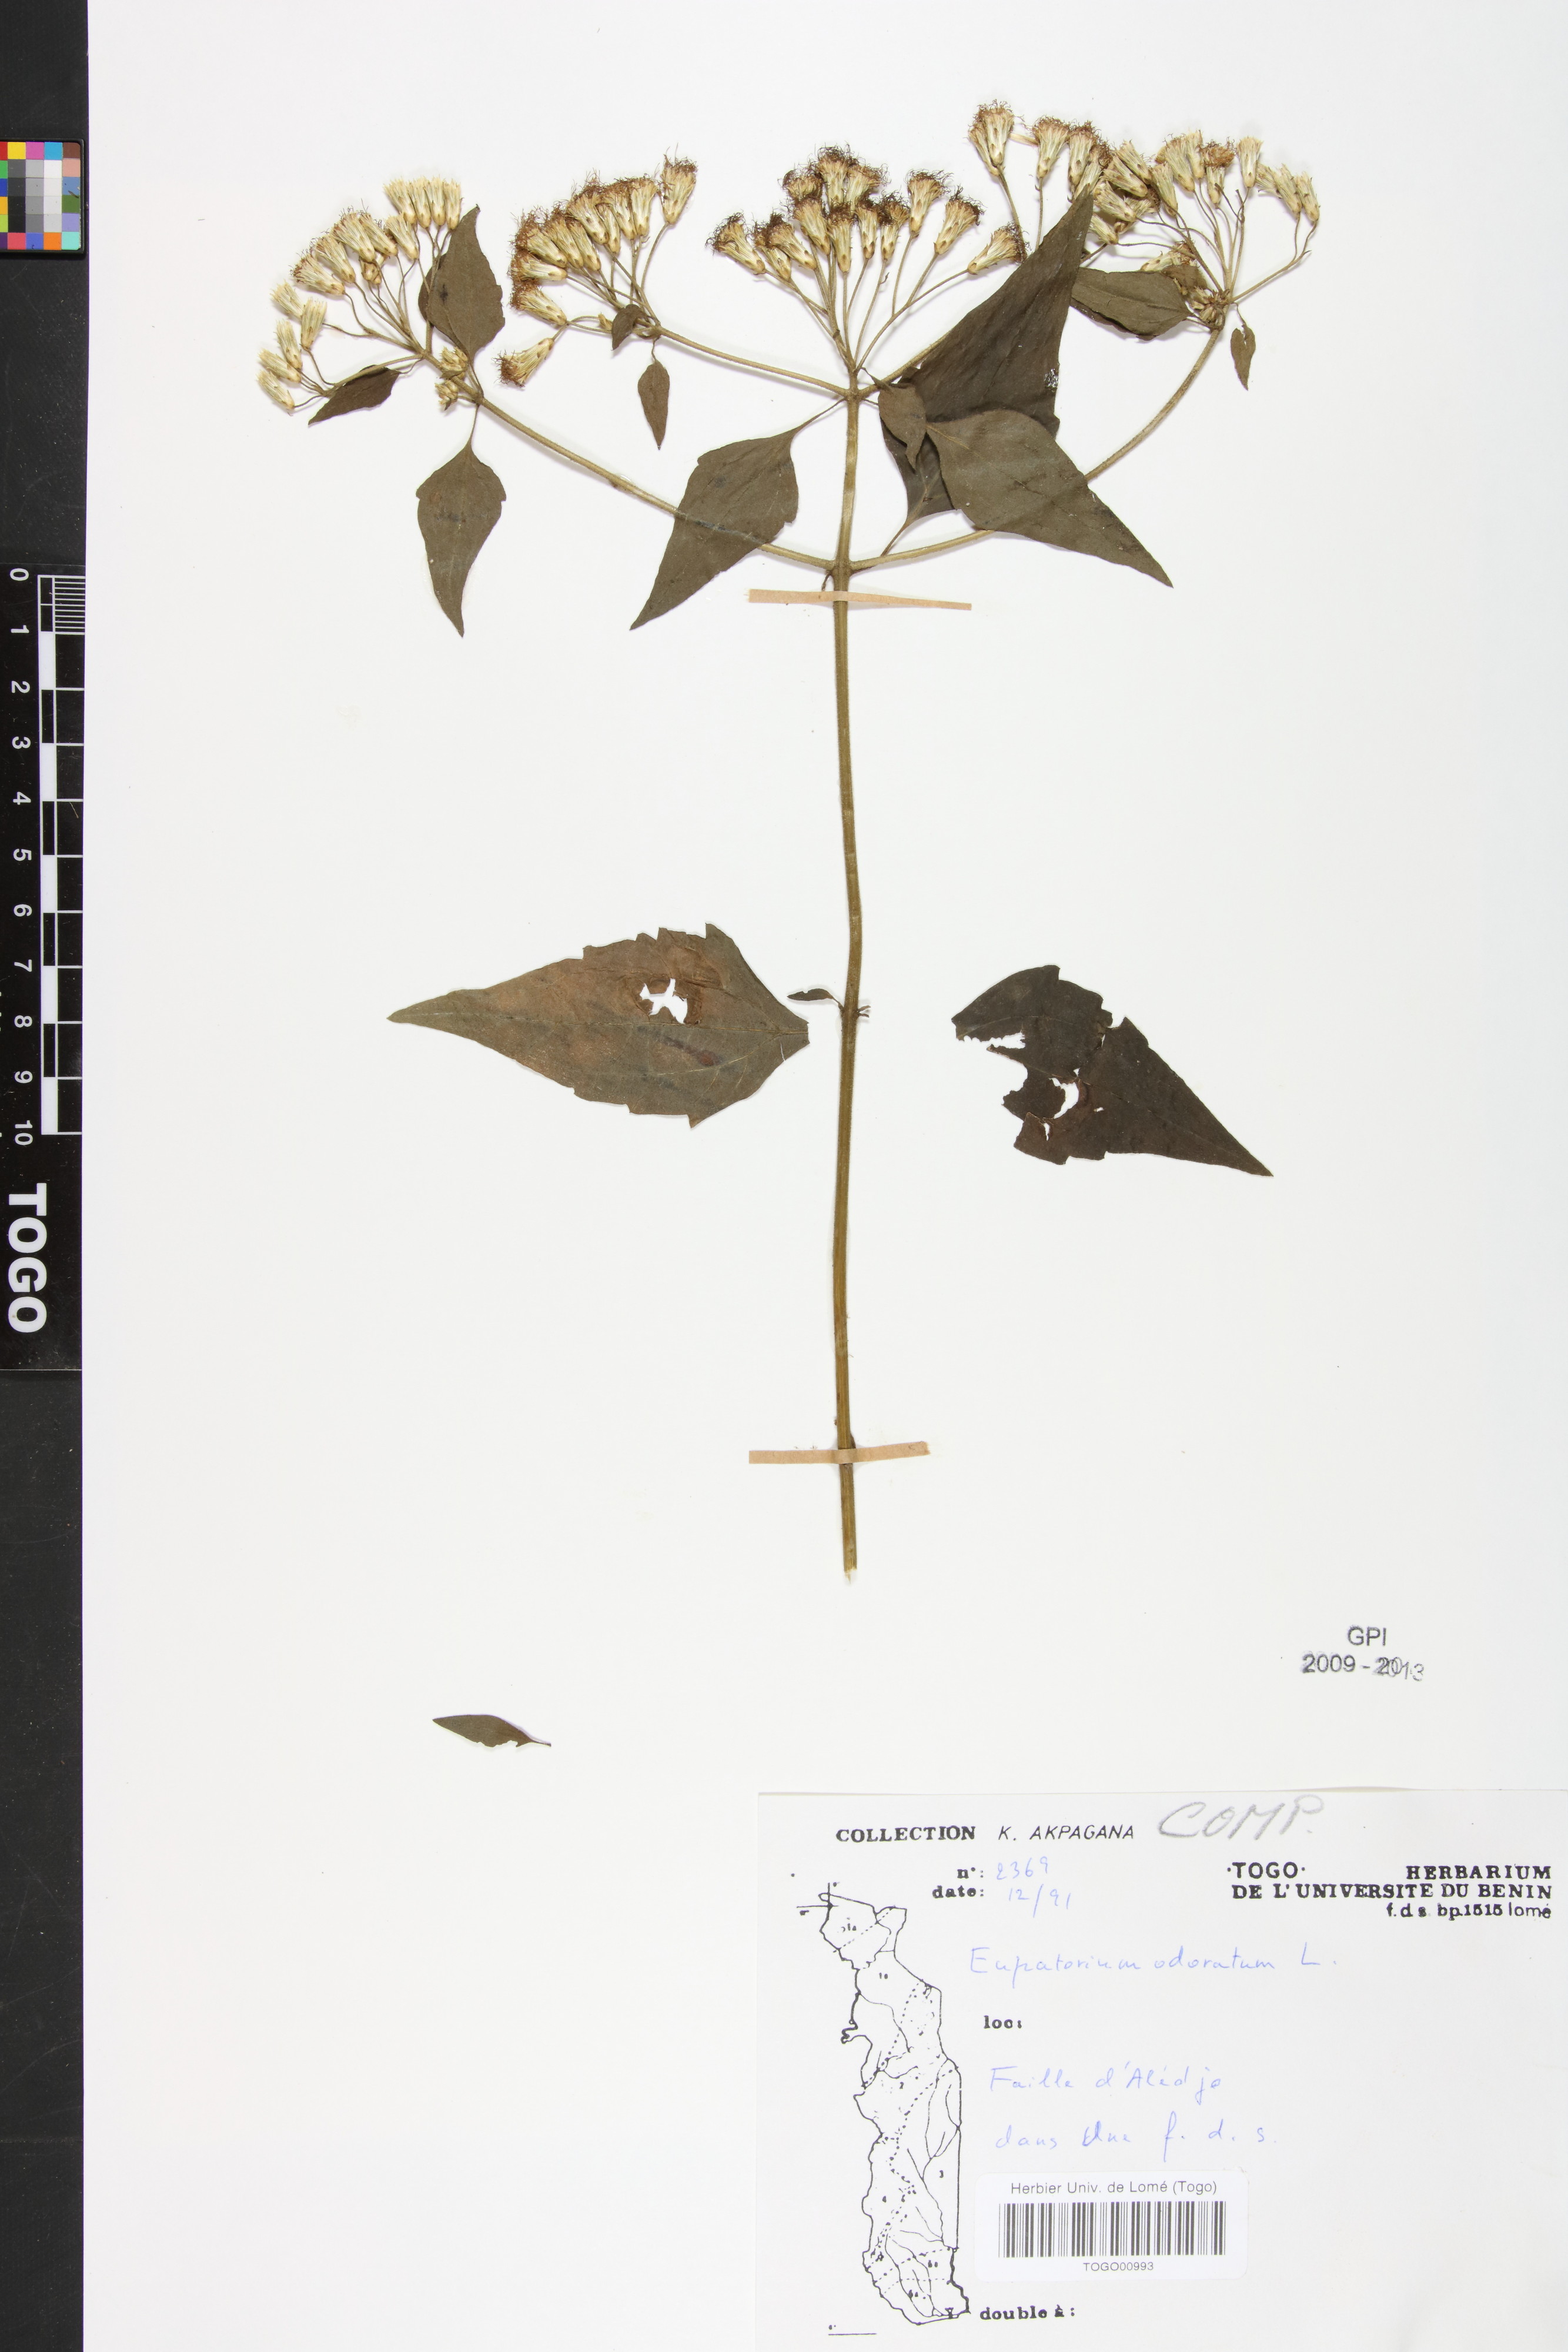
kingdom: Plantae
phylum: Tracheophyta
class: Magnoliopsida
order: Asterales
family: Asteraceae
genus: Chromolaena
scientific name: Chromolaena odorata
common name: Siamweed
